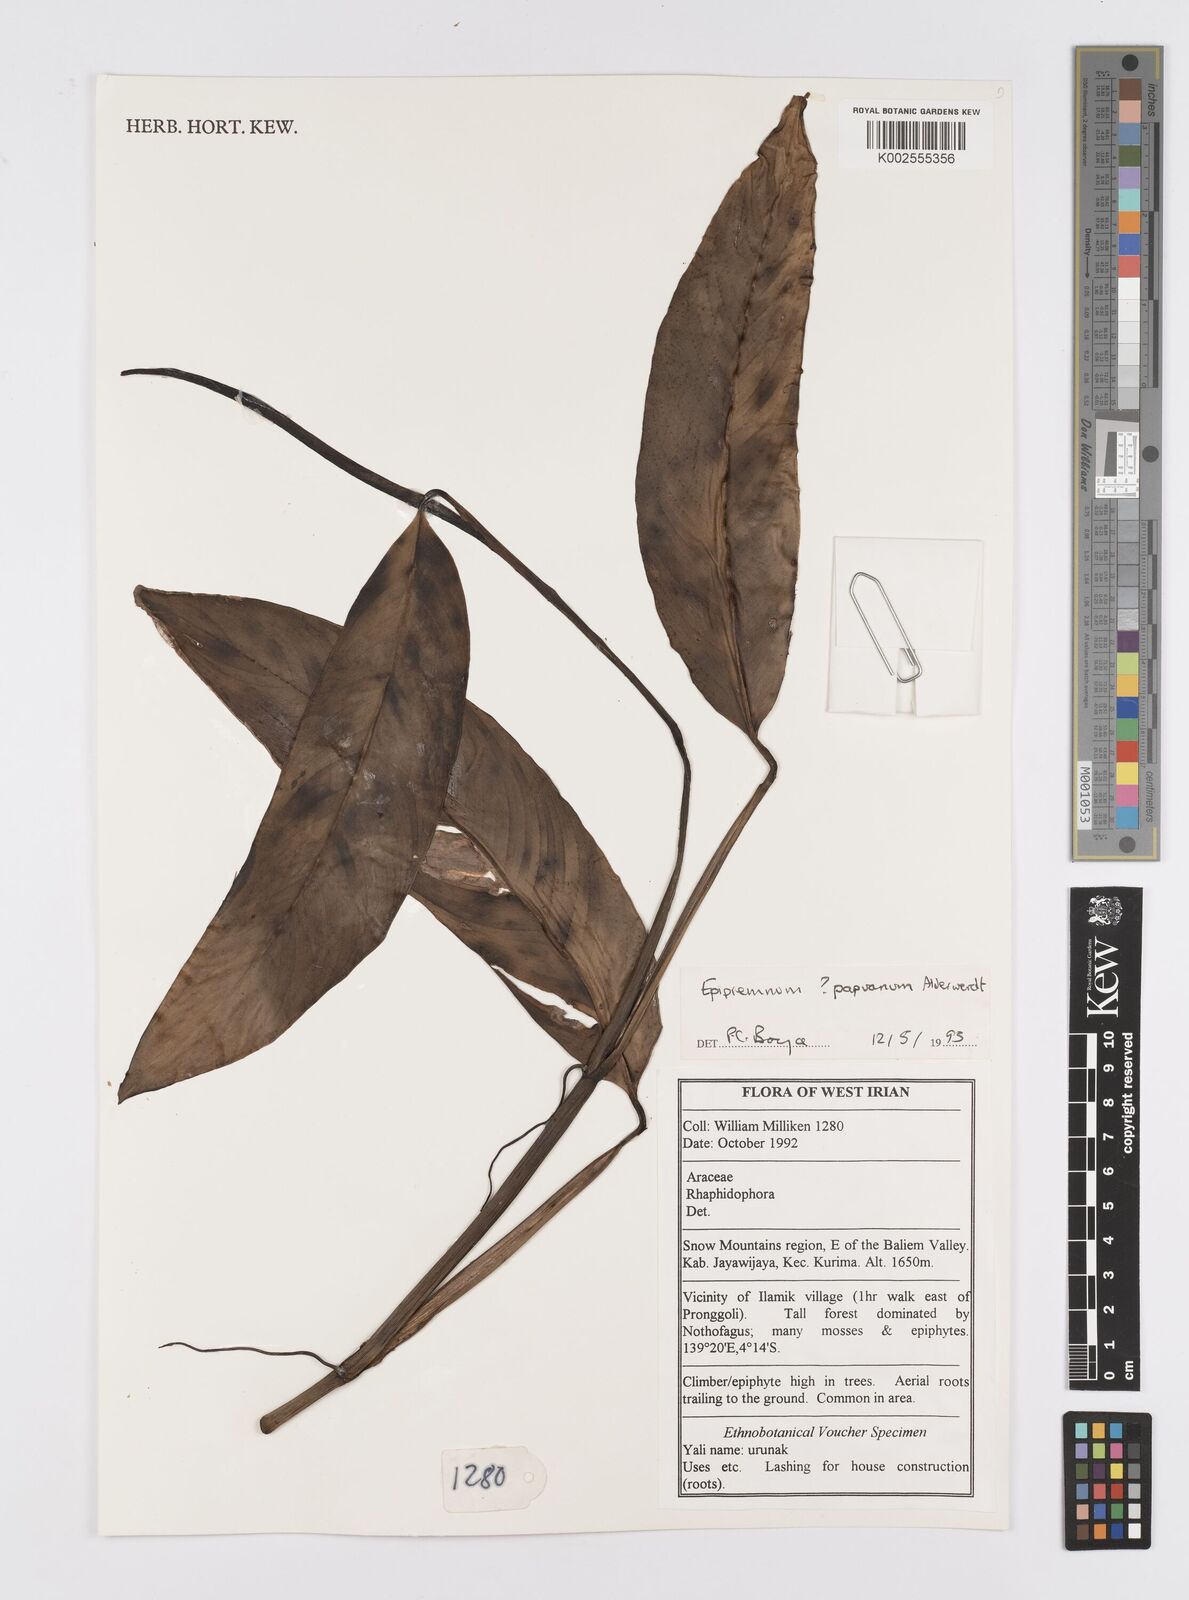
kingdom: Plantae
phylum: Tracheophyta
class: Liliopsida
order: Alismatales
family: Araceae
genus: Epipremnum
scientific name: Epipremnum papuanum
